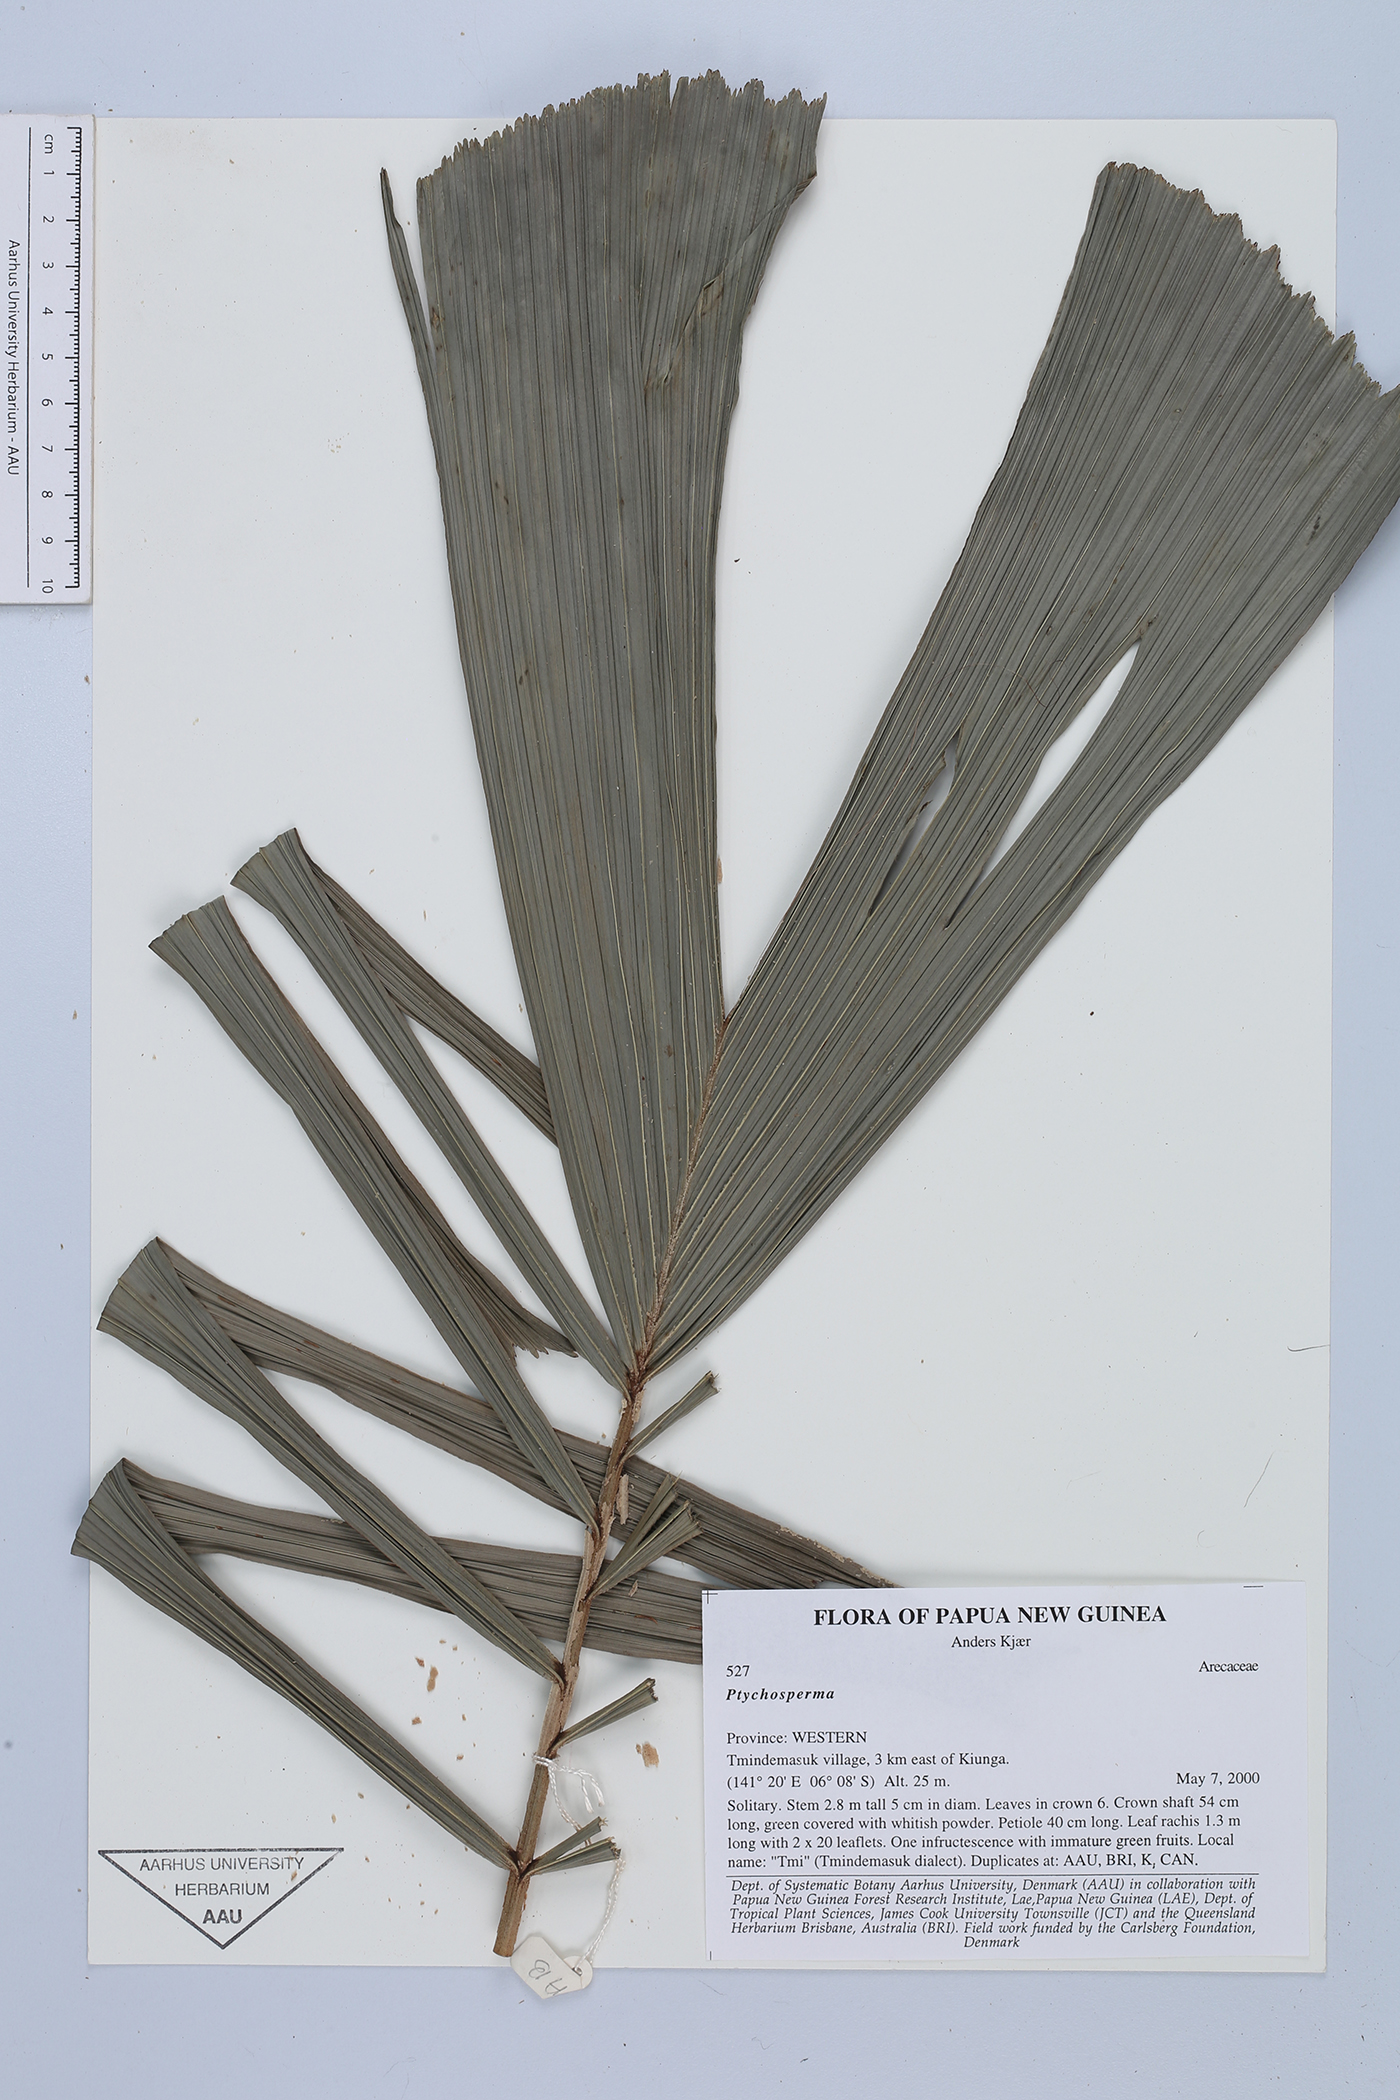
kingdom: Plantae
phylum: Tracheophyta
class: Liliopsida
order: Arecales
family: Arecaceae
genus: Ptychosperma
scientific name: Ptychosperma
